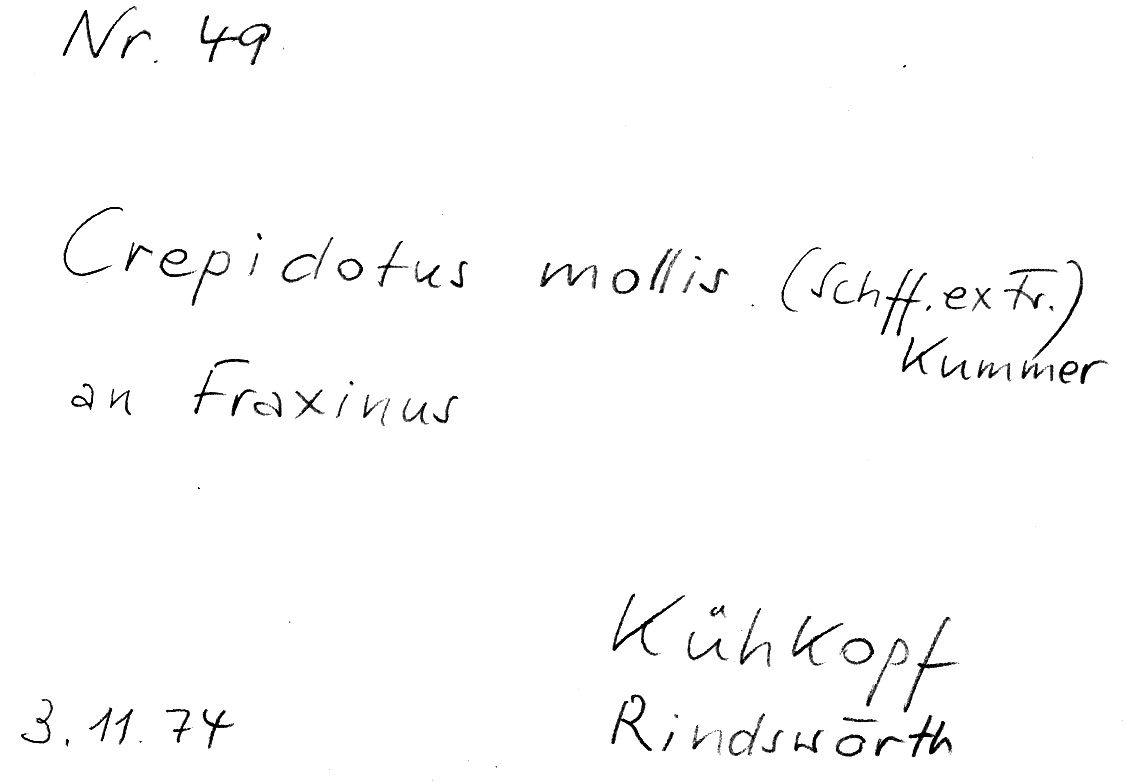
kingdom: Fungi
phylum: Basidiomycota
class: Agaricomycetes
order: Agaricales
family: Crepidotaceae
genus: Crepidotus
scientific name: Crepidotus mollis
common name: Peeling oysterling
